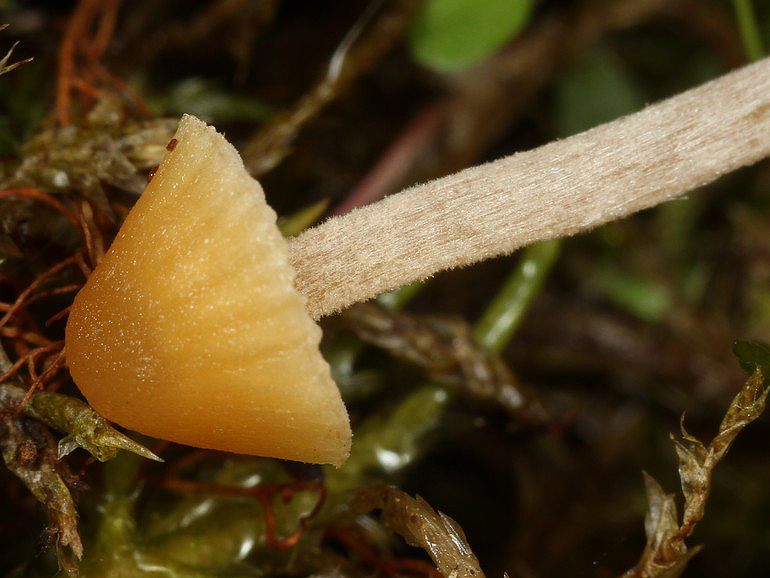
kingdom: Fungi
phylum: Basidiomycota
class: Agaricomycetes
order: Agaricales
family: Hymenogastraceae
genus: Galerina
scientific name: Galerina clavata
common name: kær-hjelmhat
